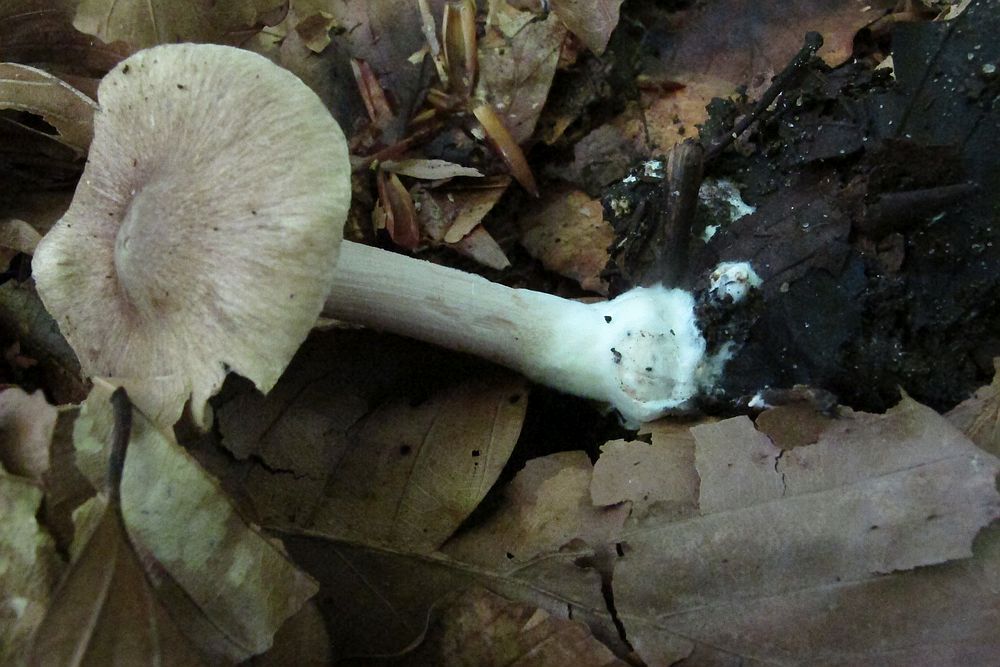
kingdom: Fungi
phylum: Basidiomycota
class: Agaricomycetes
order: Agaricales
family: Inocybaceae
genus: Inocybe
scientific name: Inocybe albomarginata
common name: lysrandet trævlhat
